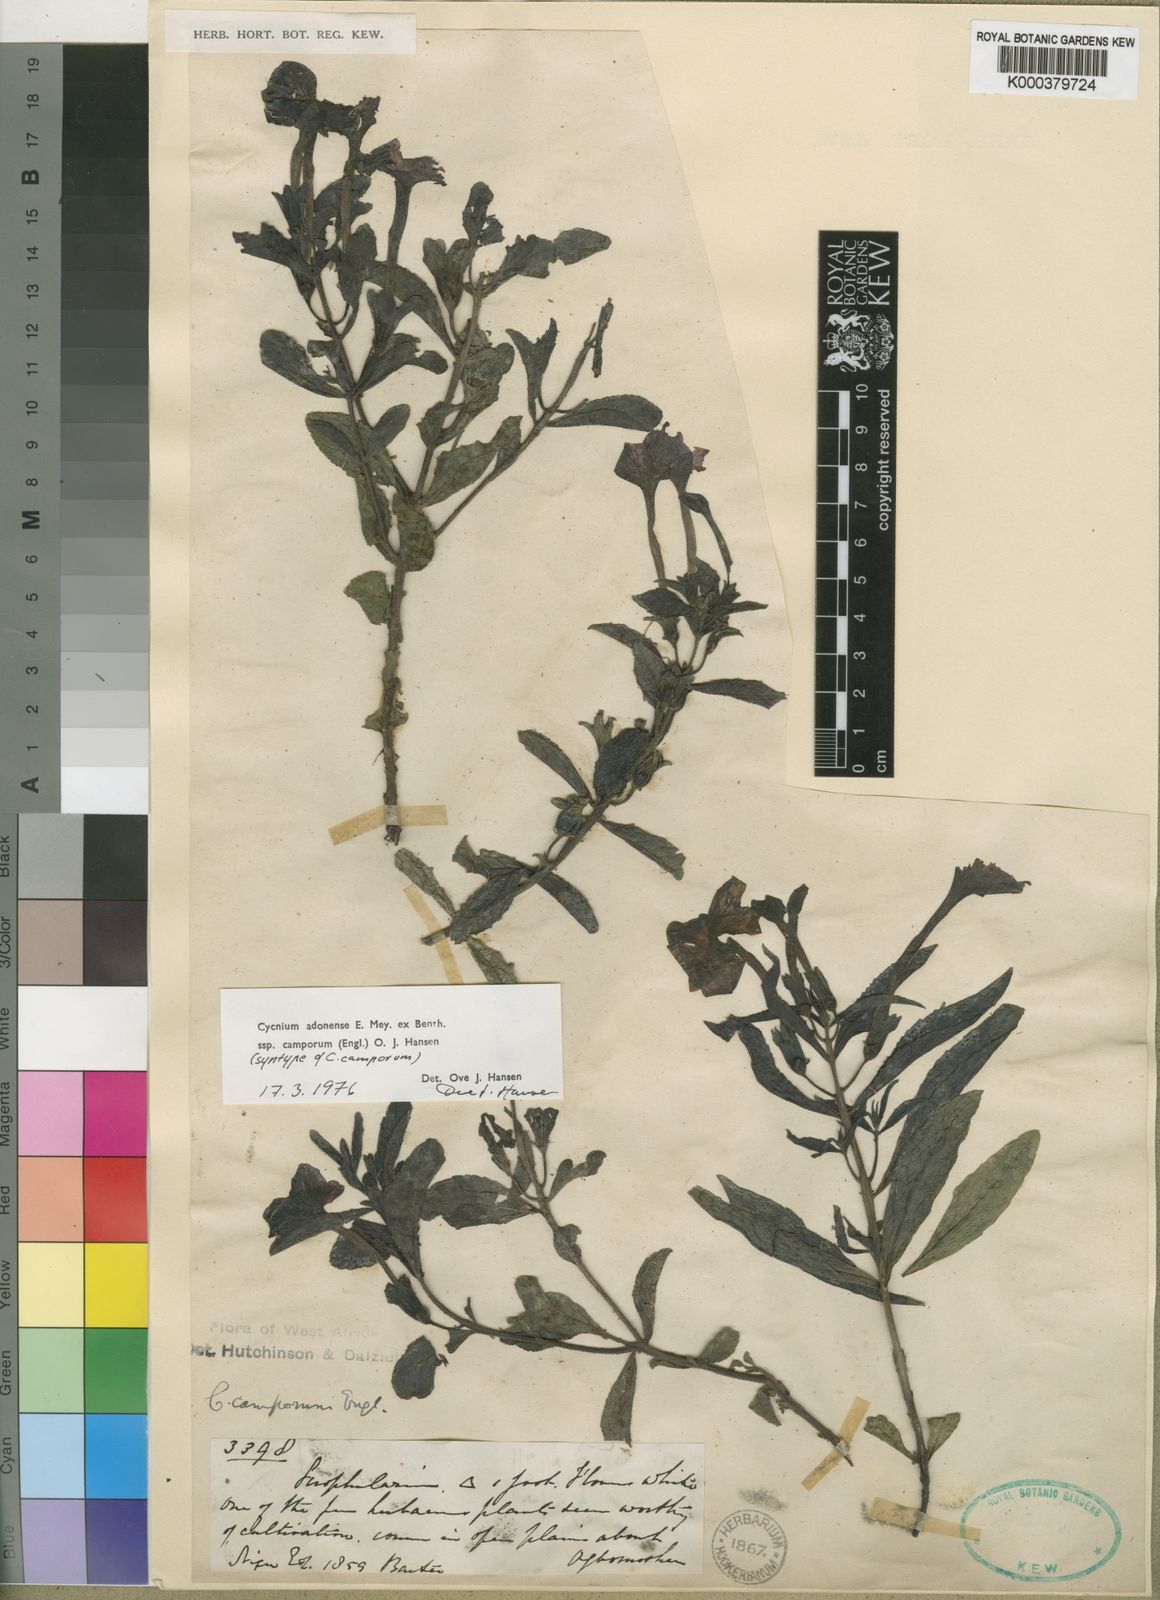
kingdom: Plantae
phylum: Tracheophyta
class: Magnoliopsida
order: Lamiales
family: Orobanchaceae
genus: Cycnium
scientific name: Cycnium adoense
